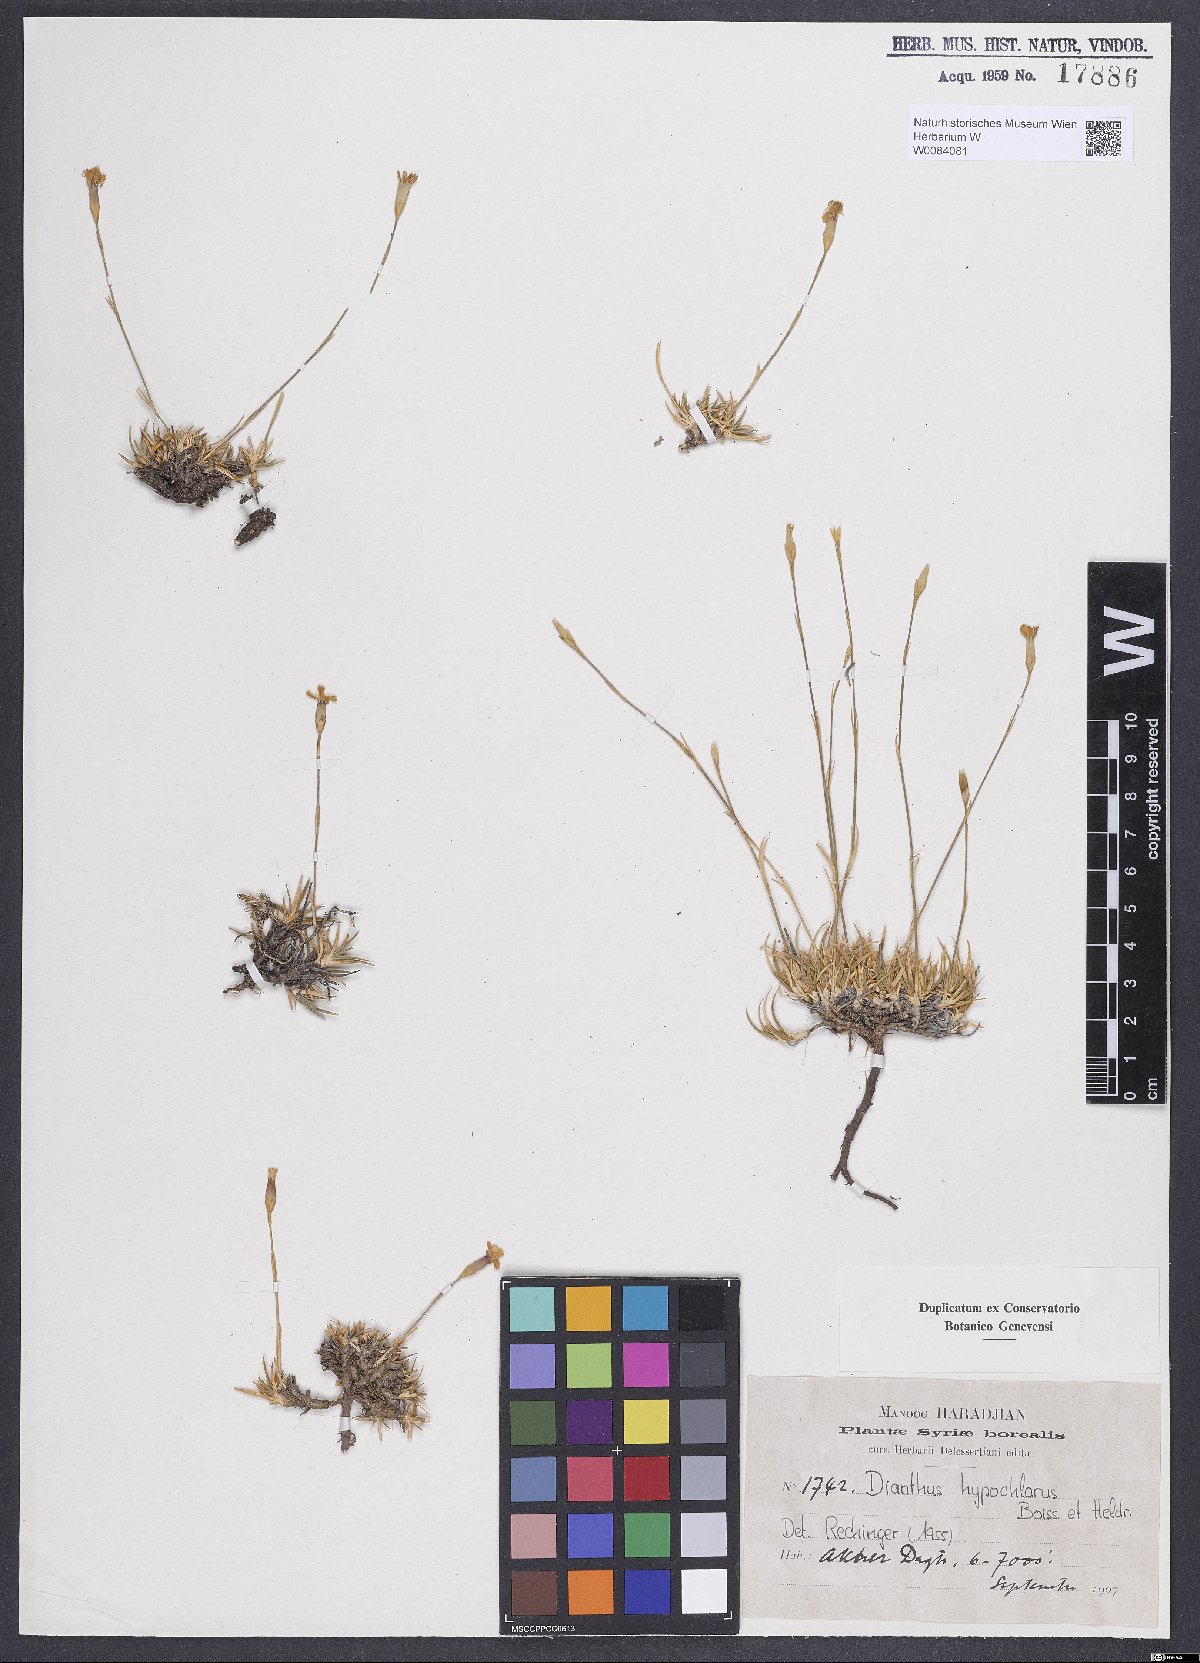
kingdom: Plantae
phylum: Tracheophyta
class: Magnoliopsida
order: Caryophyllales
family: Caryophyllaceae
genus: Dianthus
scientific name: Dianthus zonatus
